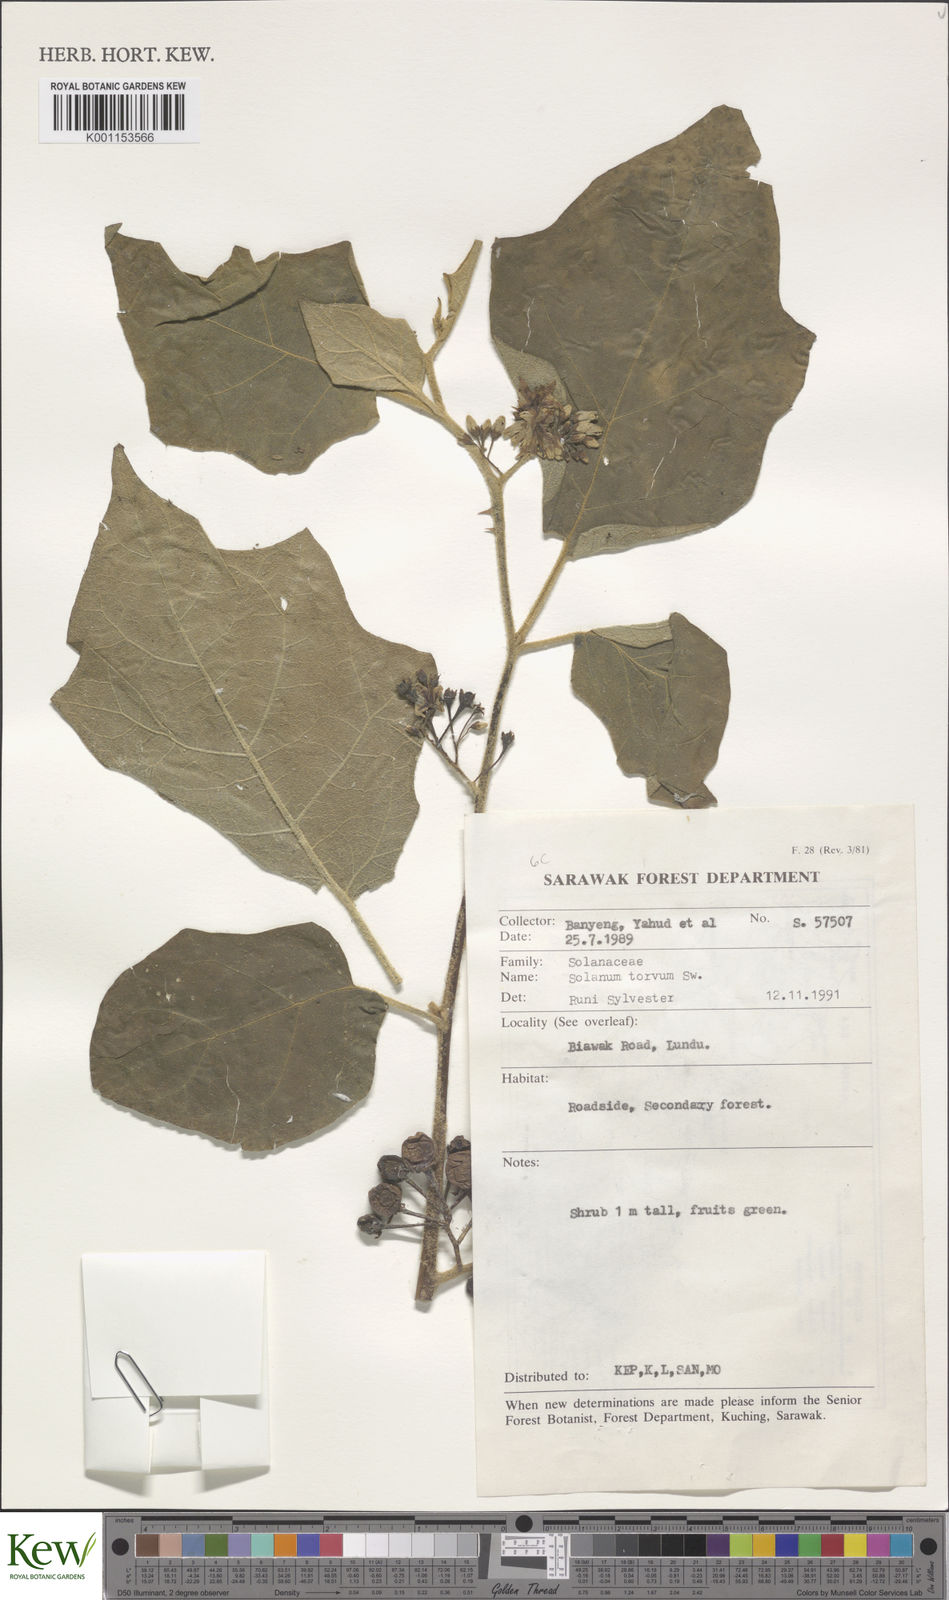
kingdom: Plantae
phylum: Tracheophyta
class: Magnoliopsida
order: Solanales
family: Solanaceae
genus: Solanum
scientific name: Solanum torvum
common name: Turkey berry
